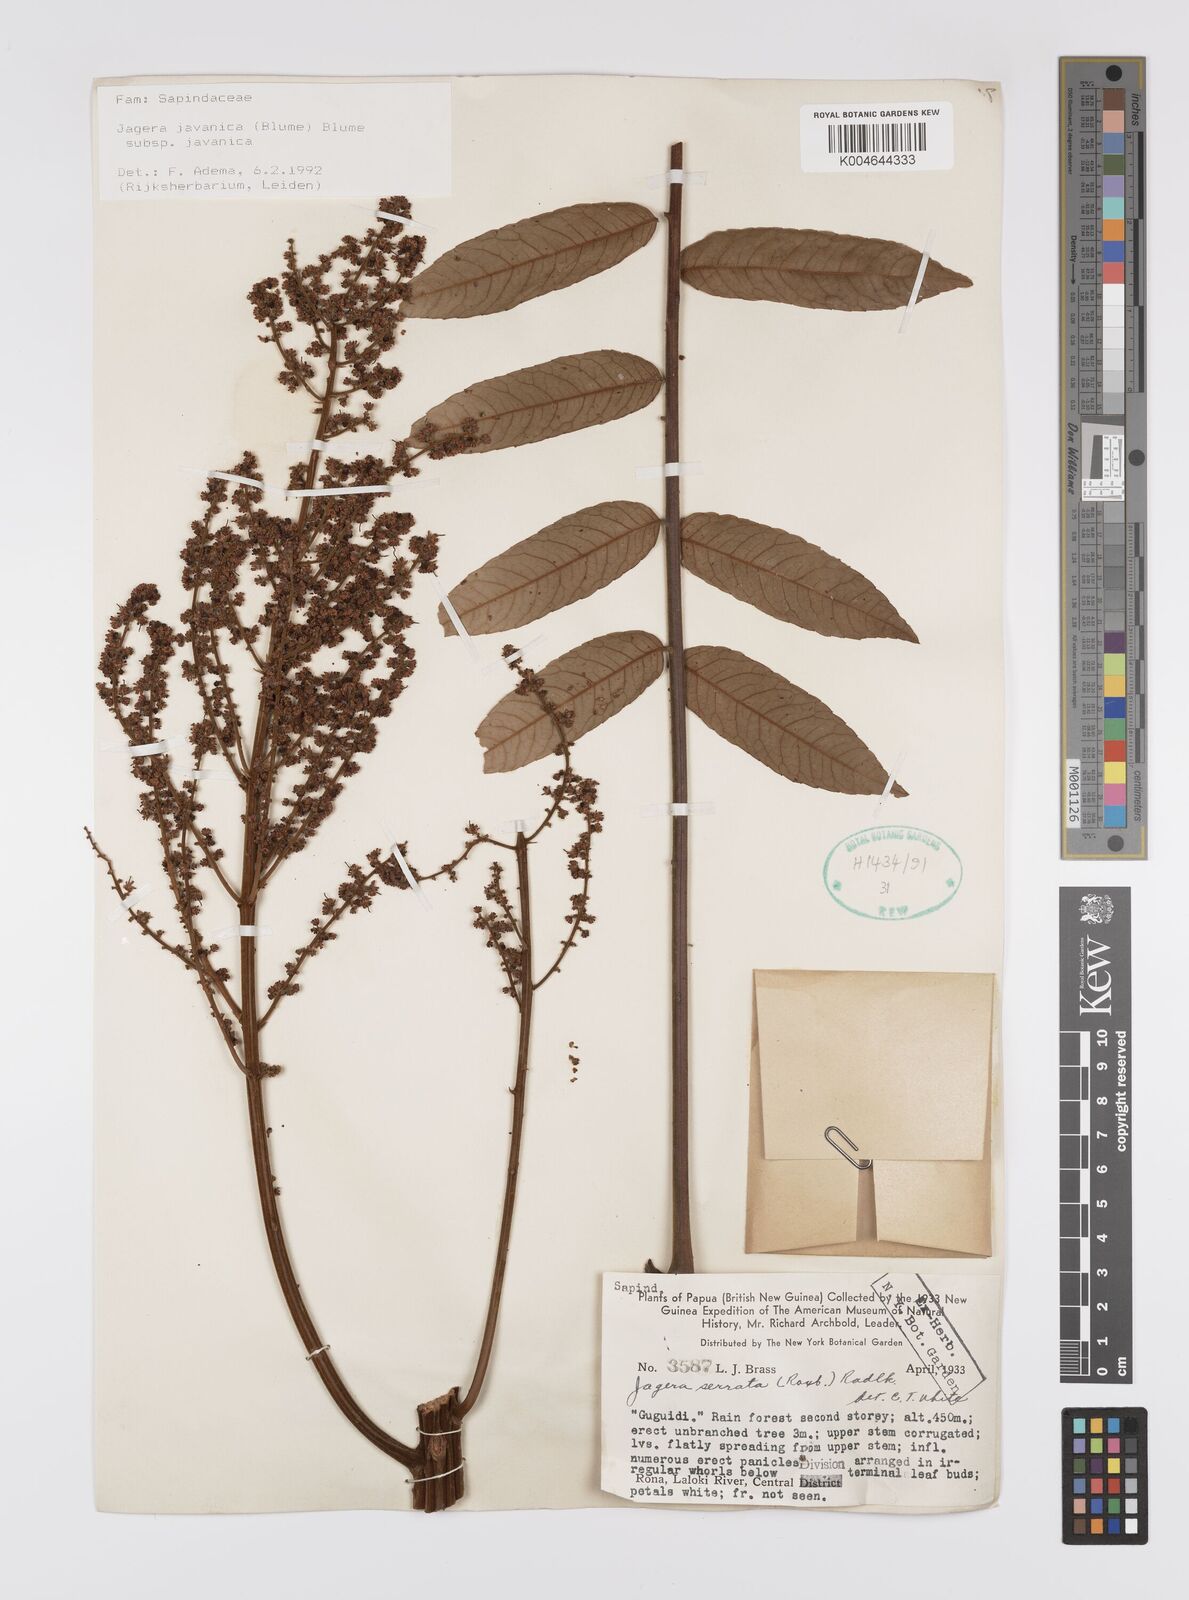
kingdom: Plantae
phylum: Tracheophyta
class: Magnoliopsida
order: Sapindales
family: Sapindaceae
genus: Jagera
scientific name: Jagera javanica
